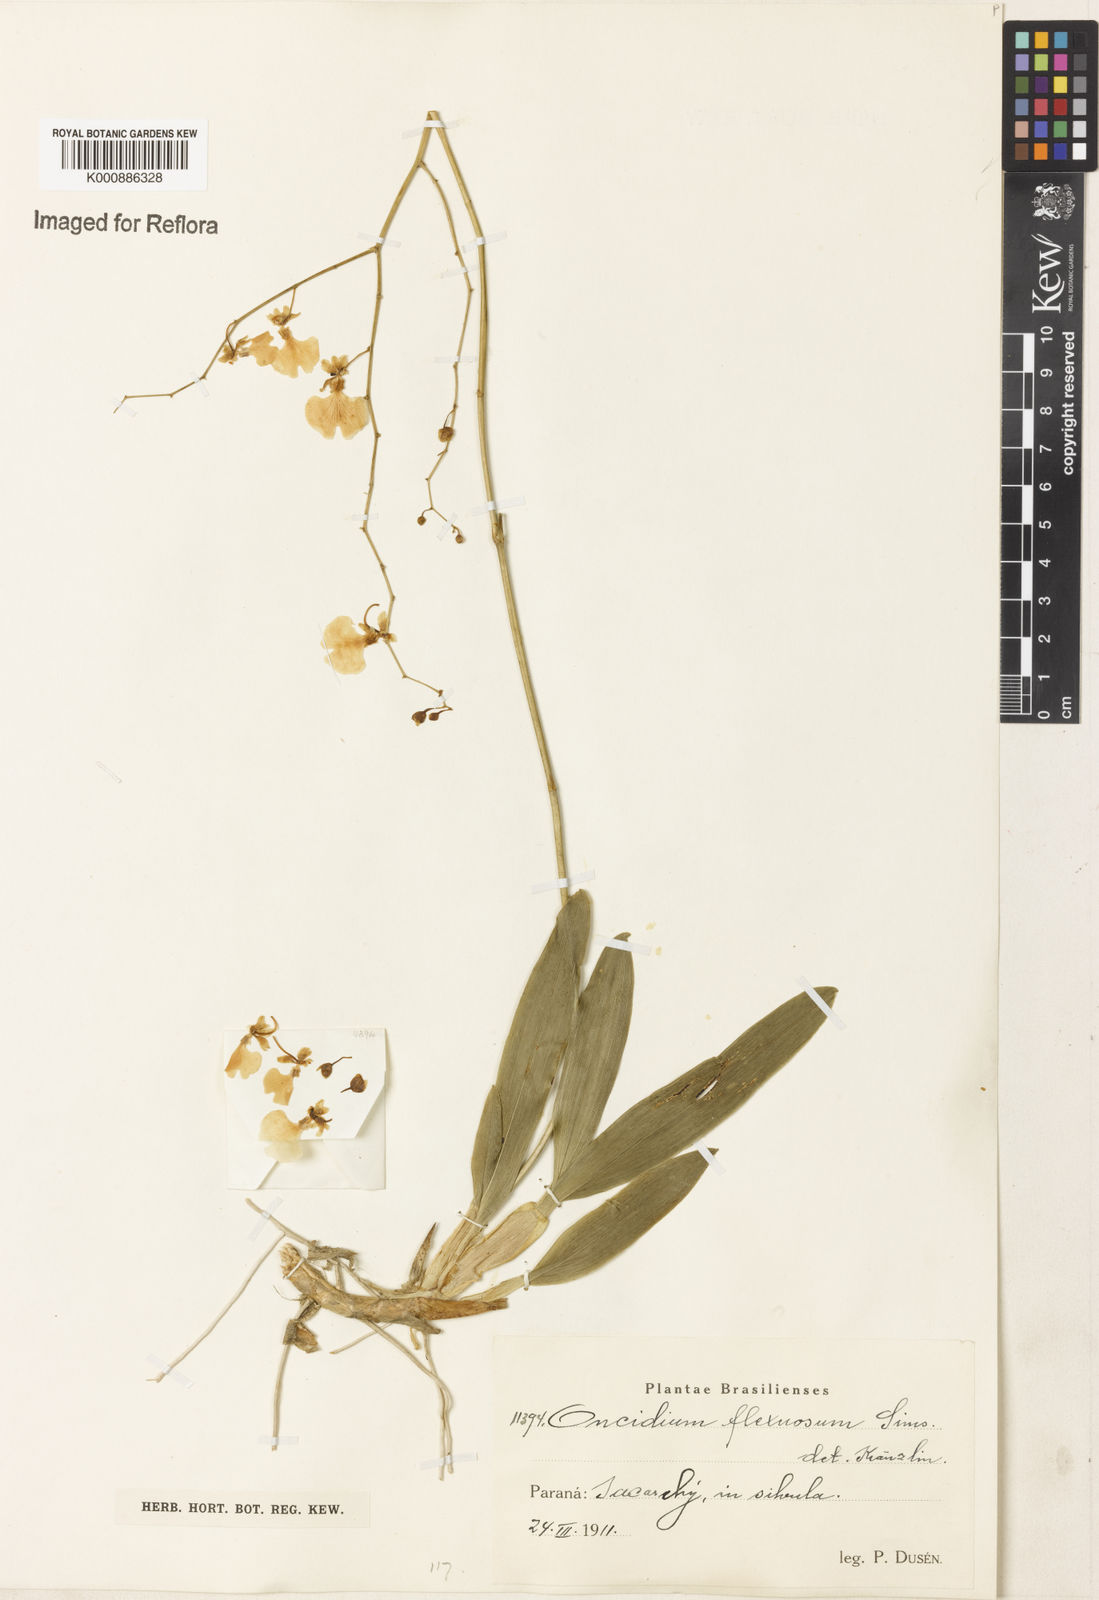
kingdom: Plantae
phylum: Tracheophyta
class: Liliopsida
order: Asparagales
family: Orchidaceae
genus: Gomesa
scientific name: Gomesa flexuosa
